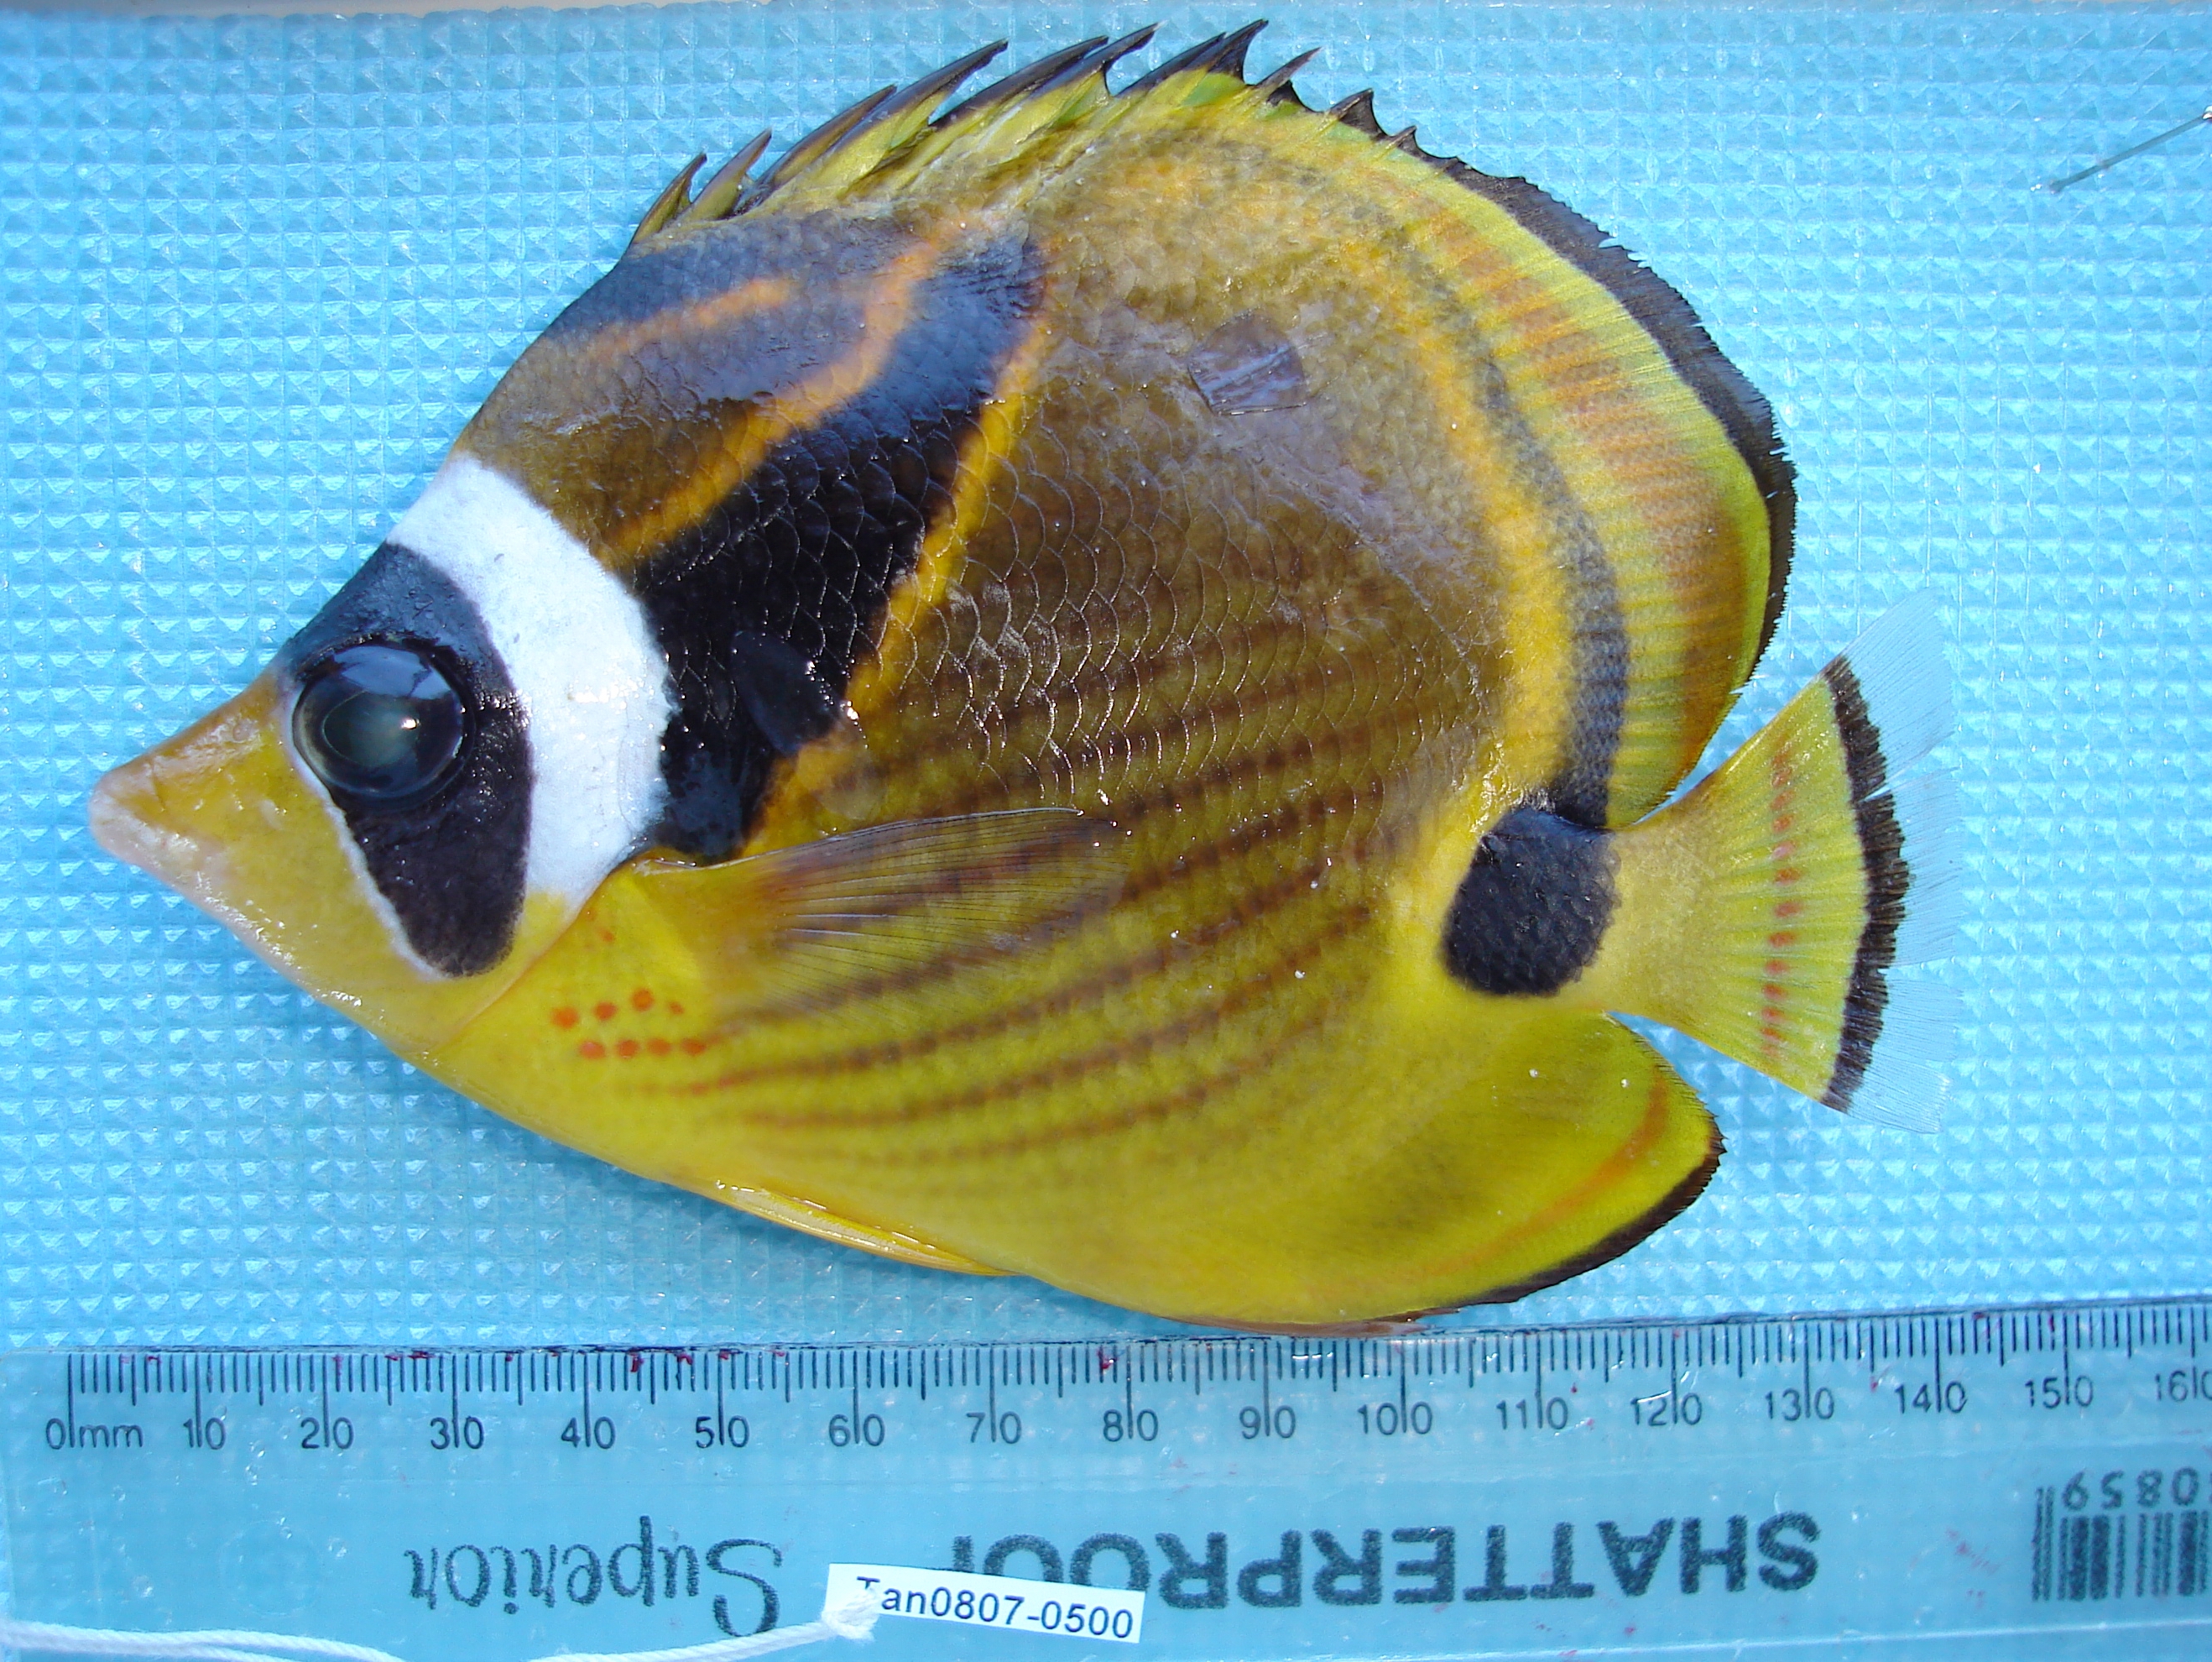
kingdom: Animalia
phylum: Chordata
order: Perciformes
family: Chaetodontidae
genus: Chaetodon
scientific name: Chaetodon lunula
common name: Raccoon butterflyfish
